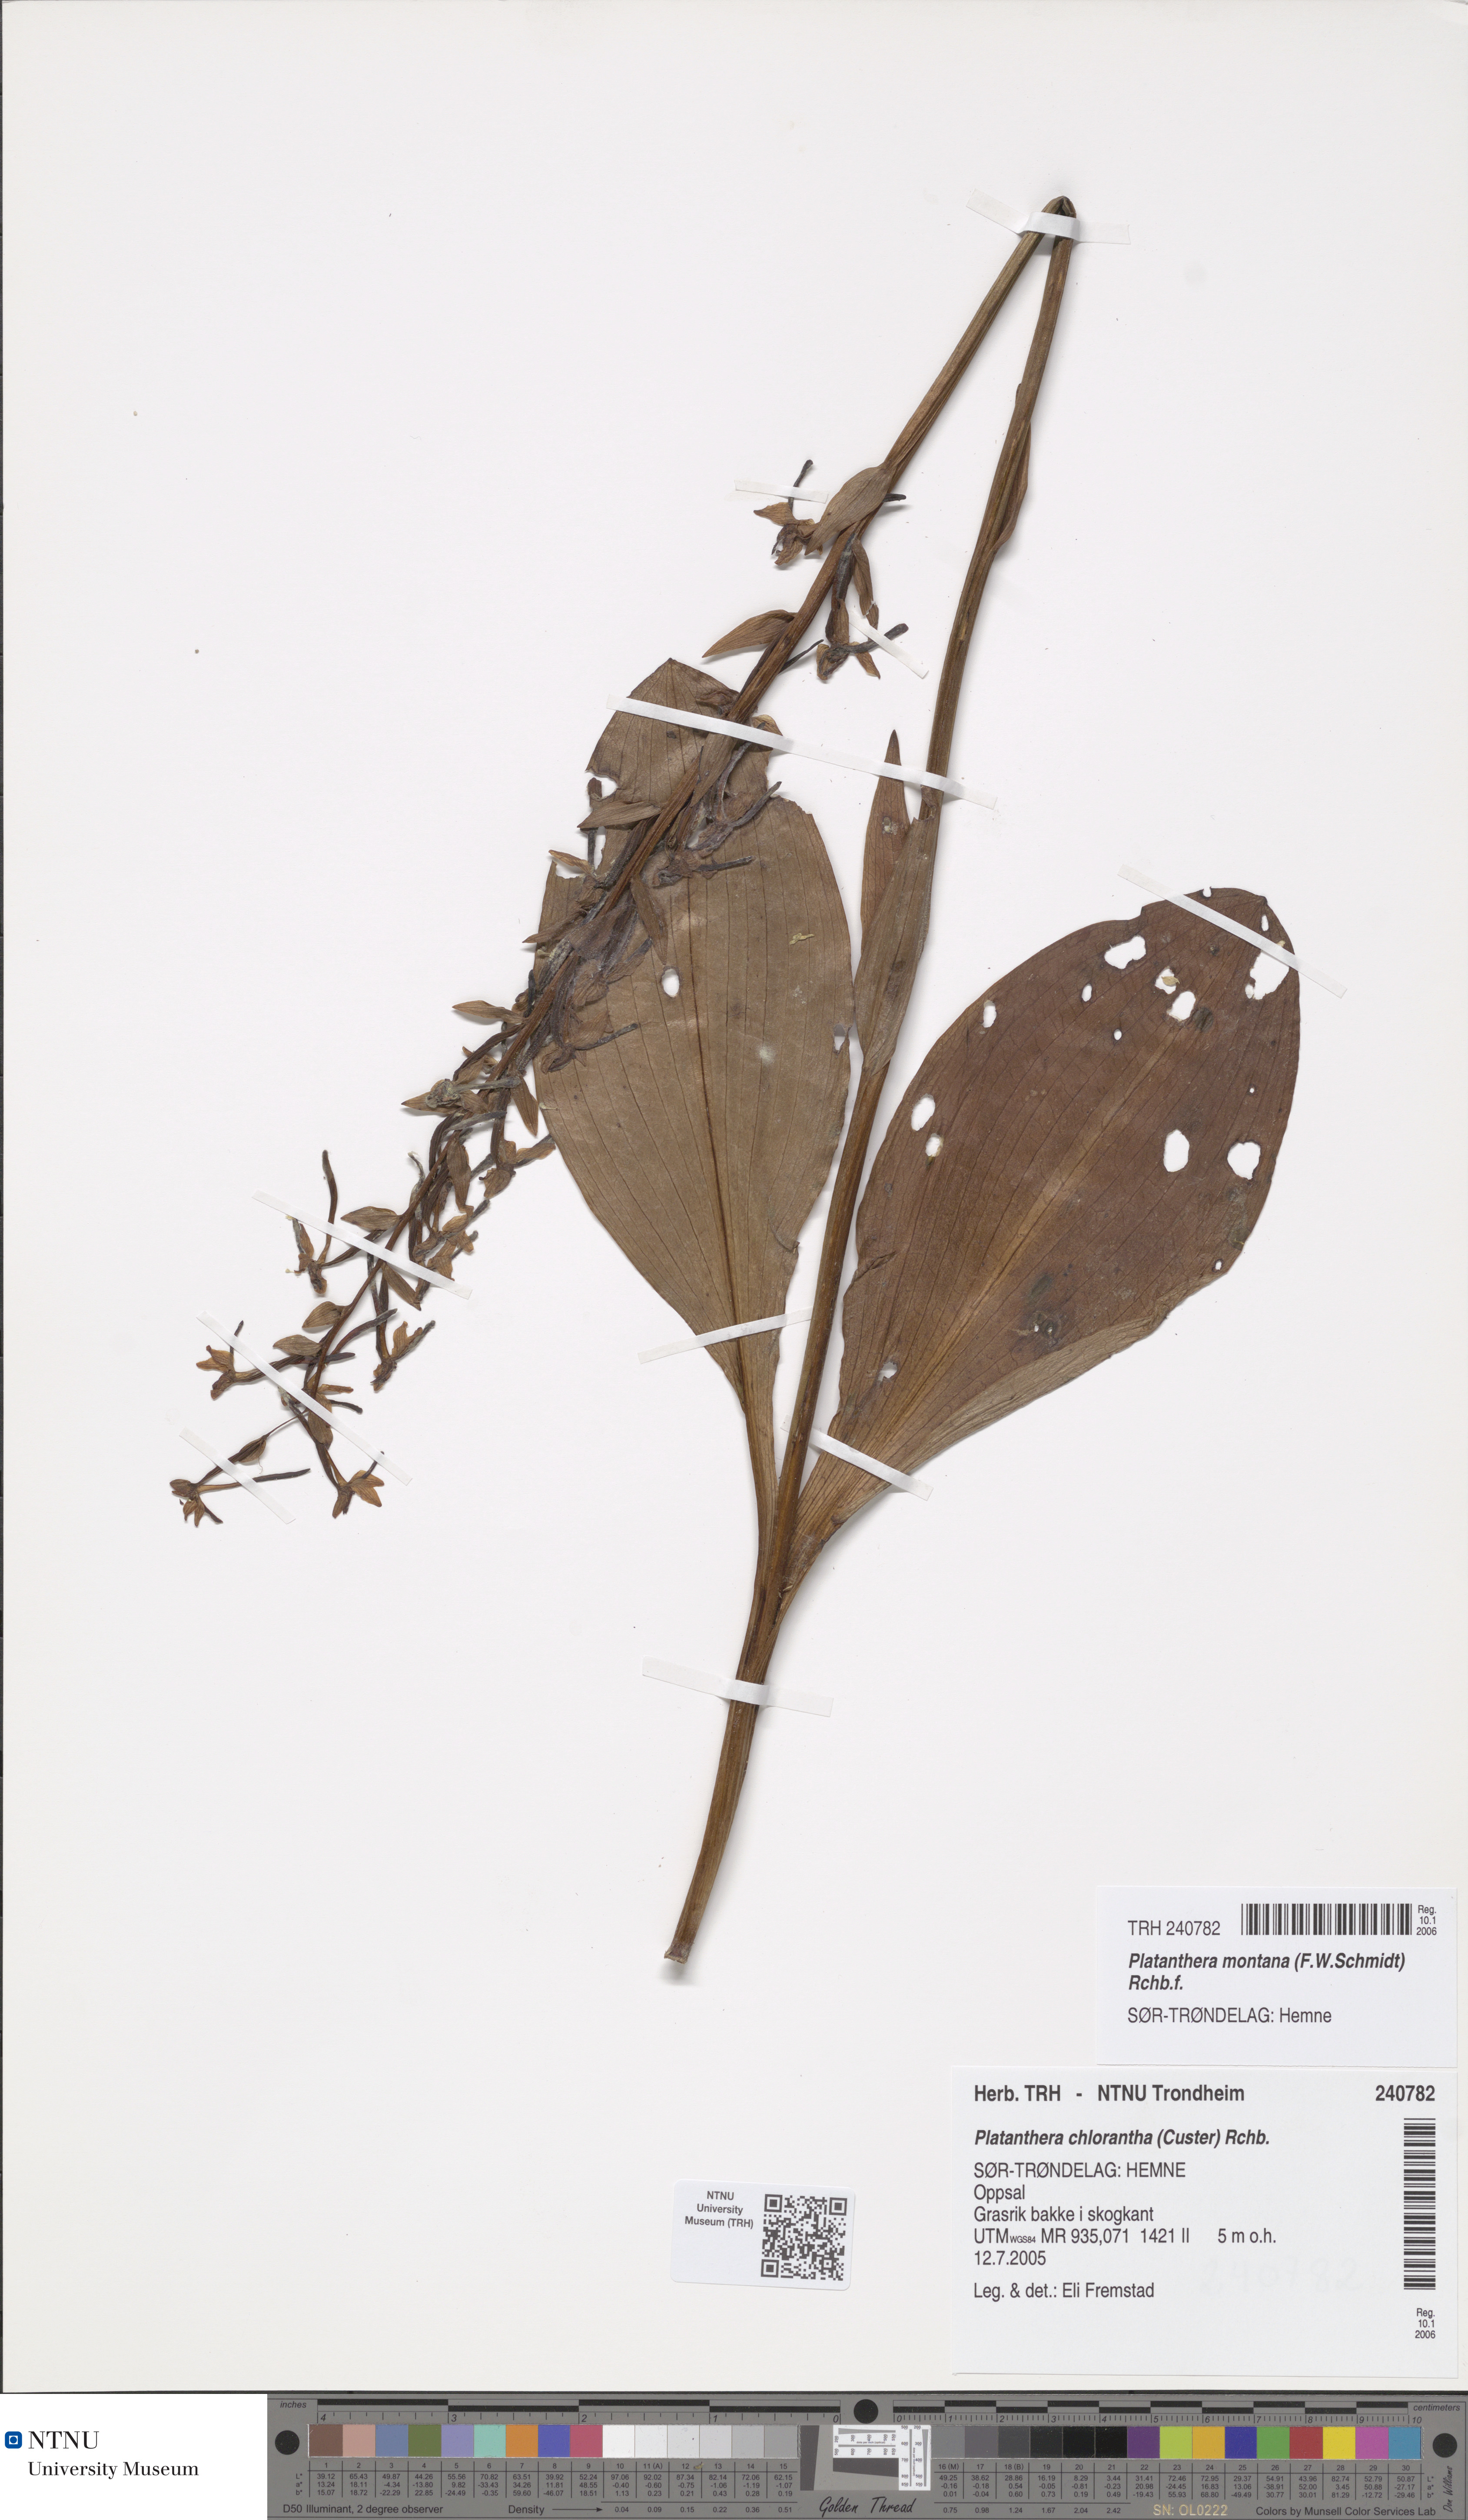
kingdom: Plantae
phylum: Tracheophyta
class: Liliopsida
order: Asparagales
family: Orchidaceae
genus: Platanthera
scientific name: Platanthera chlorantha
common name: Greater butterfly-orchid
